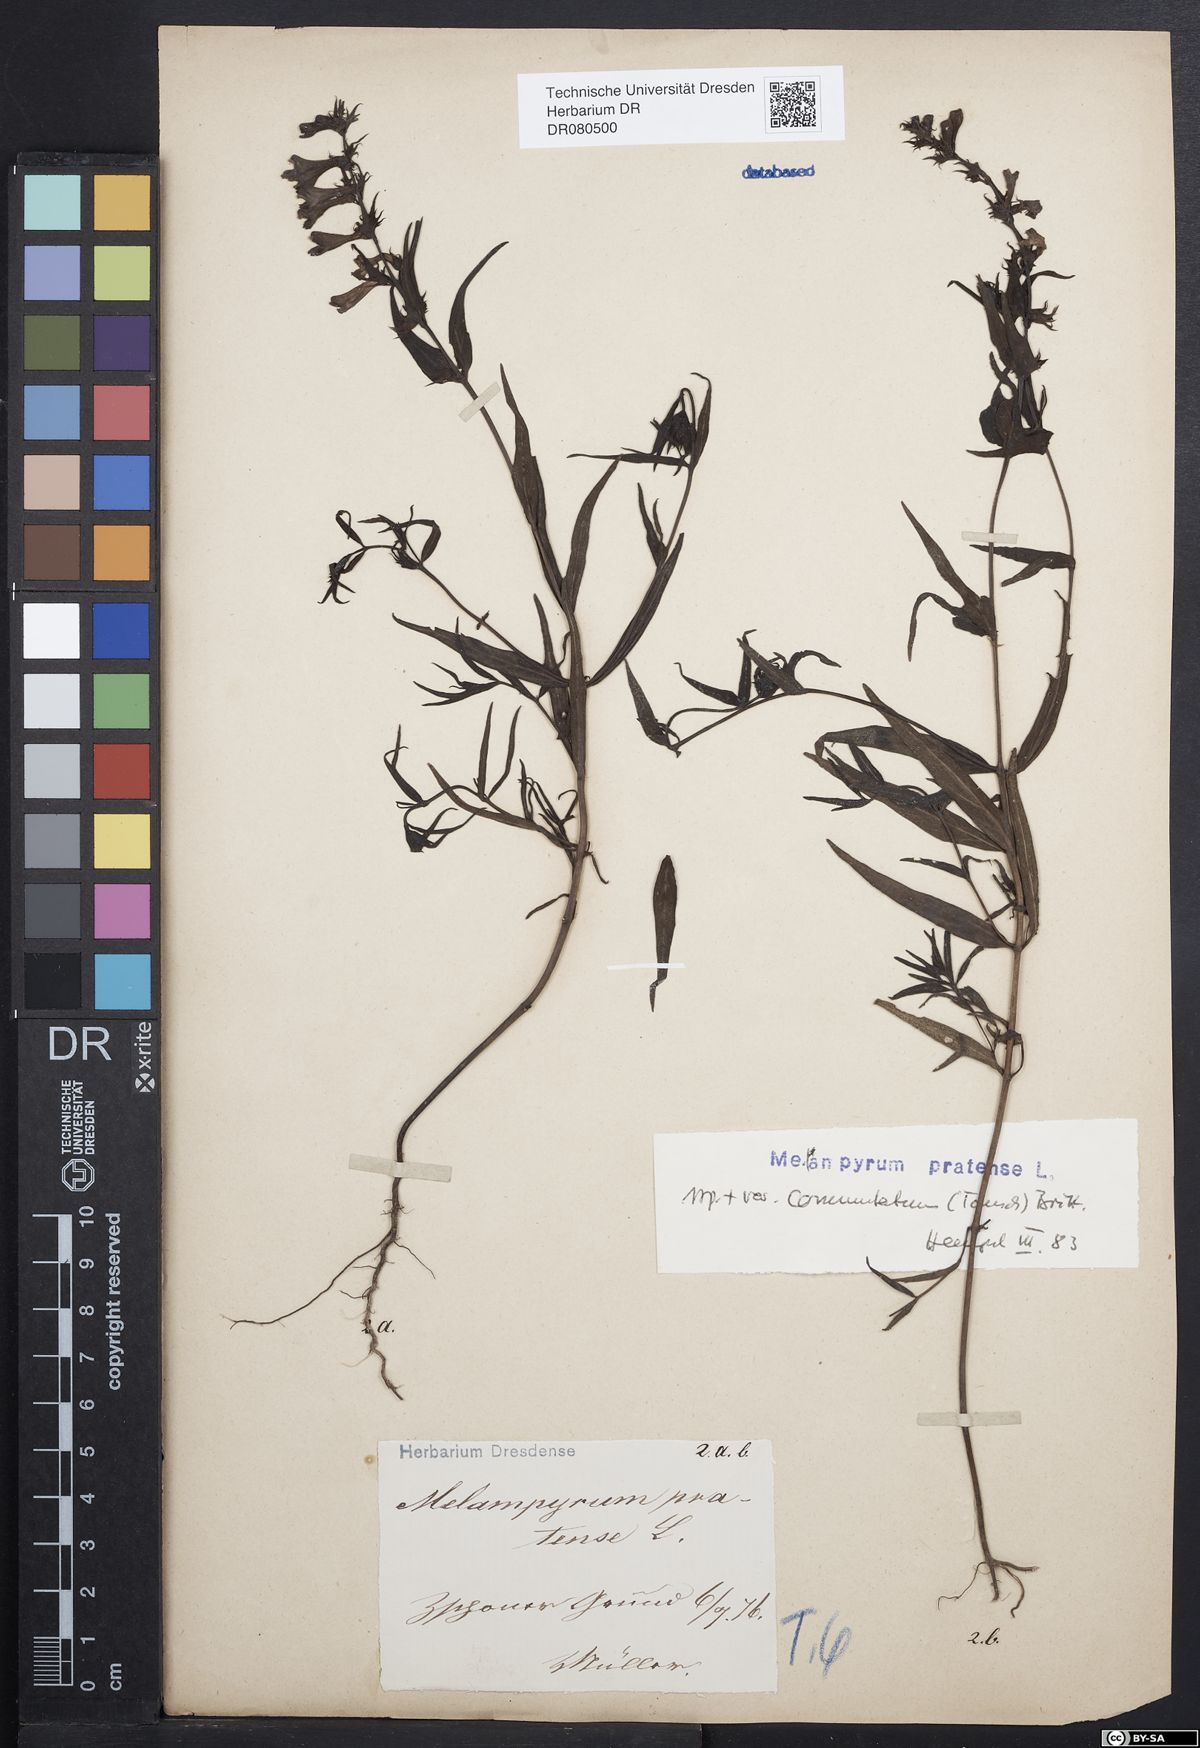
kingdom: Plantae
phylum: Tracheophyta
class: Magnoliopsida
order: Lamiales
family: Orobanchaceae
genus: Melampyrum
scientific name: Melampyrum pratense
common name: Common cow-wheat
